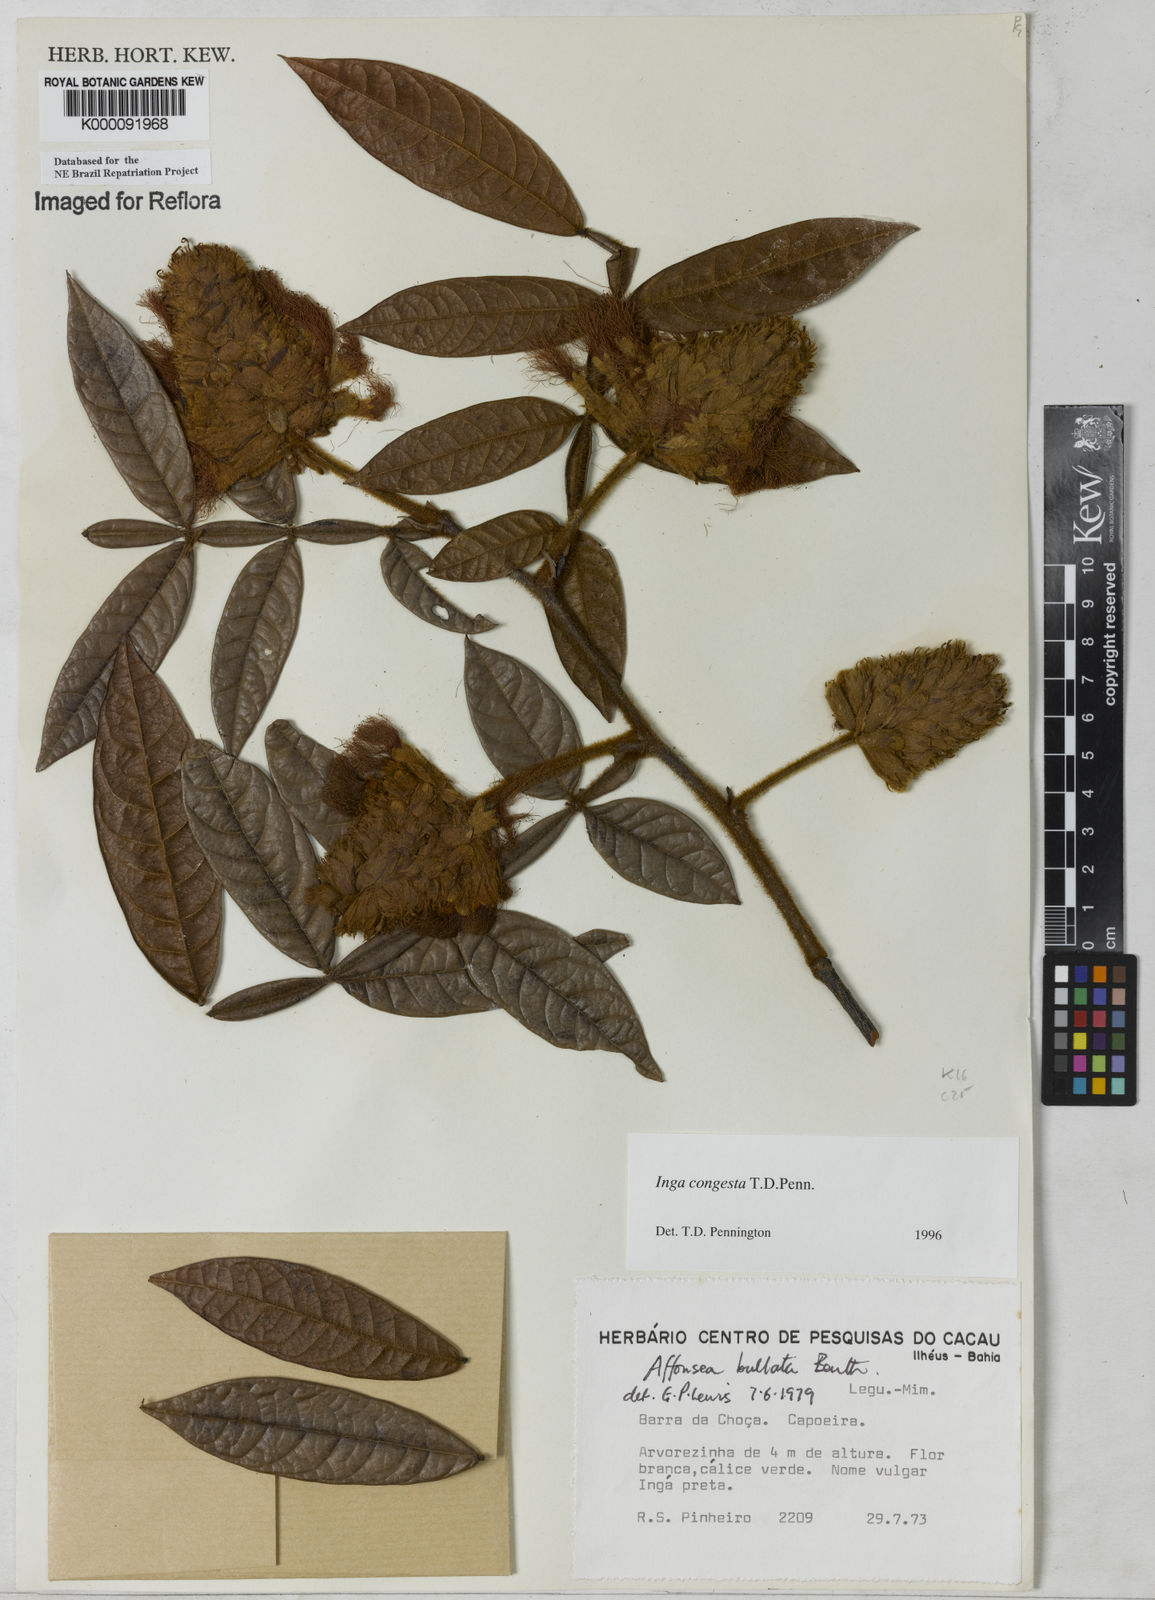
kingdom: Plantae
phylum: Tracheophyta
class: Magnoliopsida
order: Fabales
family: Fabaceae
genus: Inga
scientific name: Inga congesta
